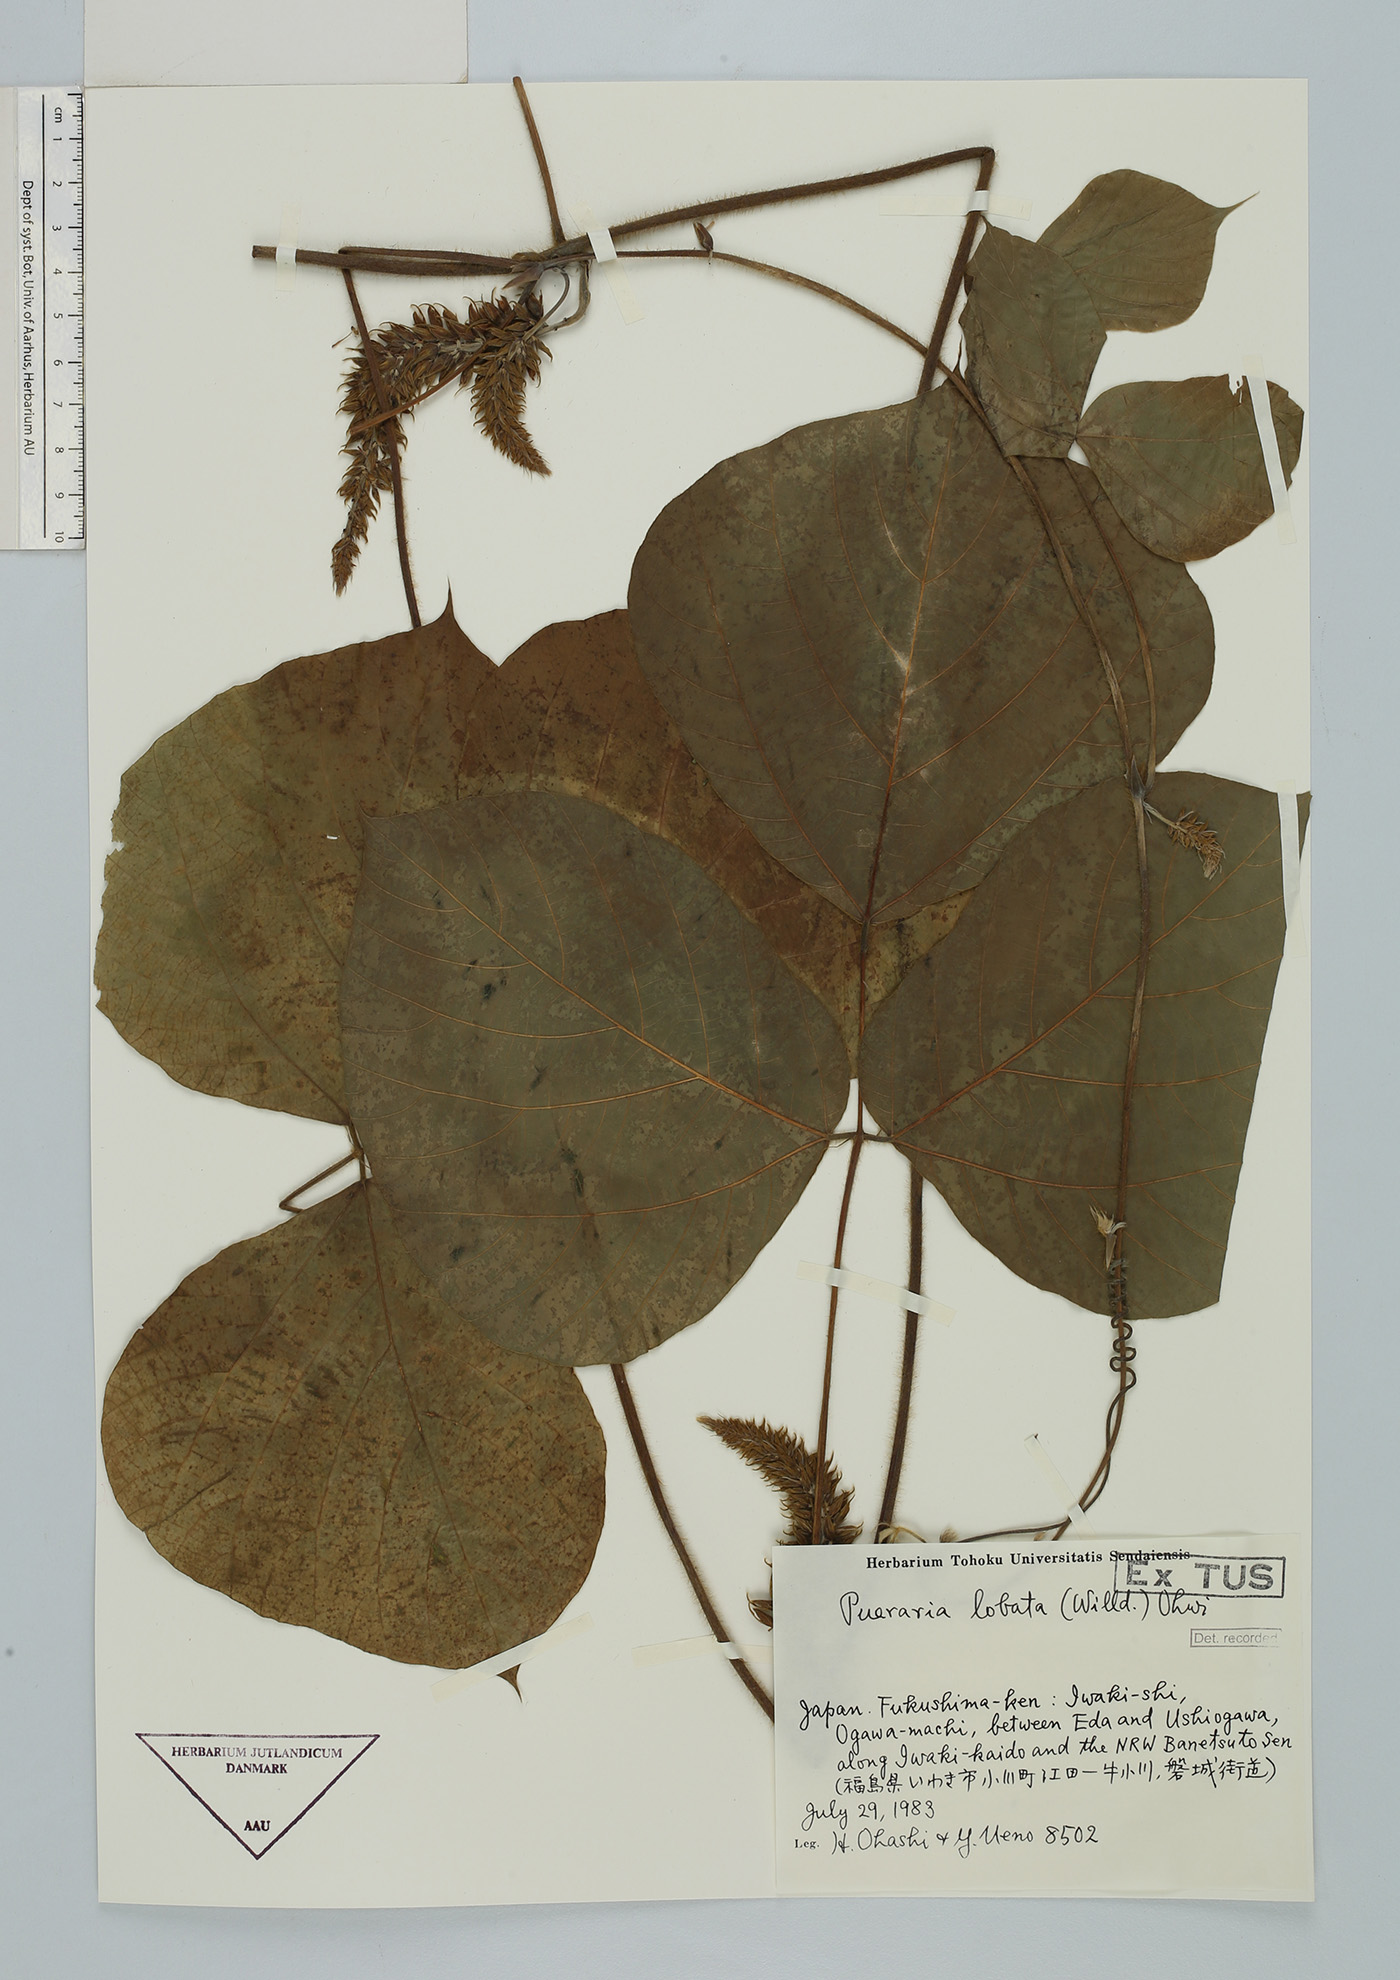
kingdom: Plantae
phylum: Tracheophyta
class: Magnoliopsida
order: Fabales
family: Fabaceae
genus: Pueraria
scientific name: Pueraria montana
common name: Kudzu
